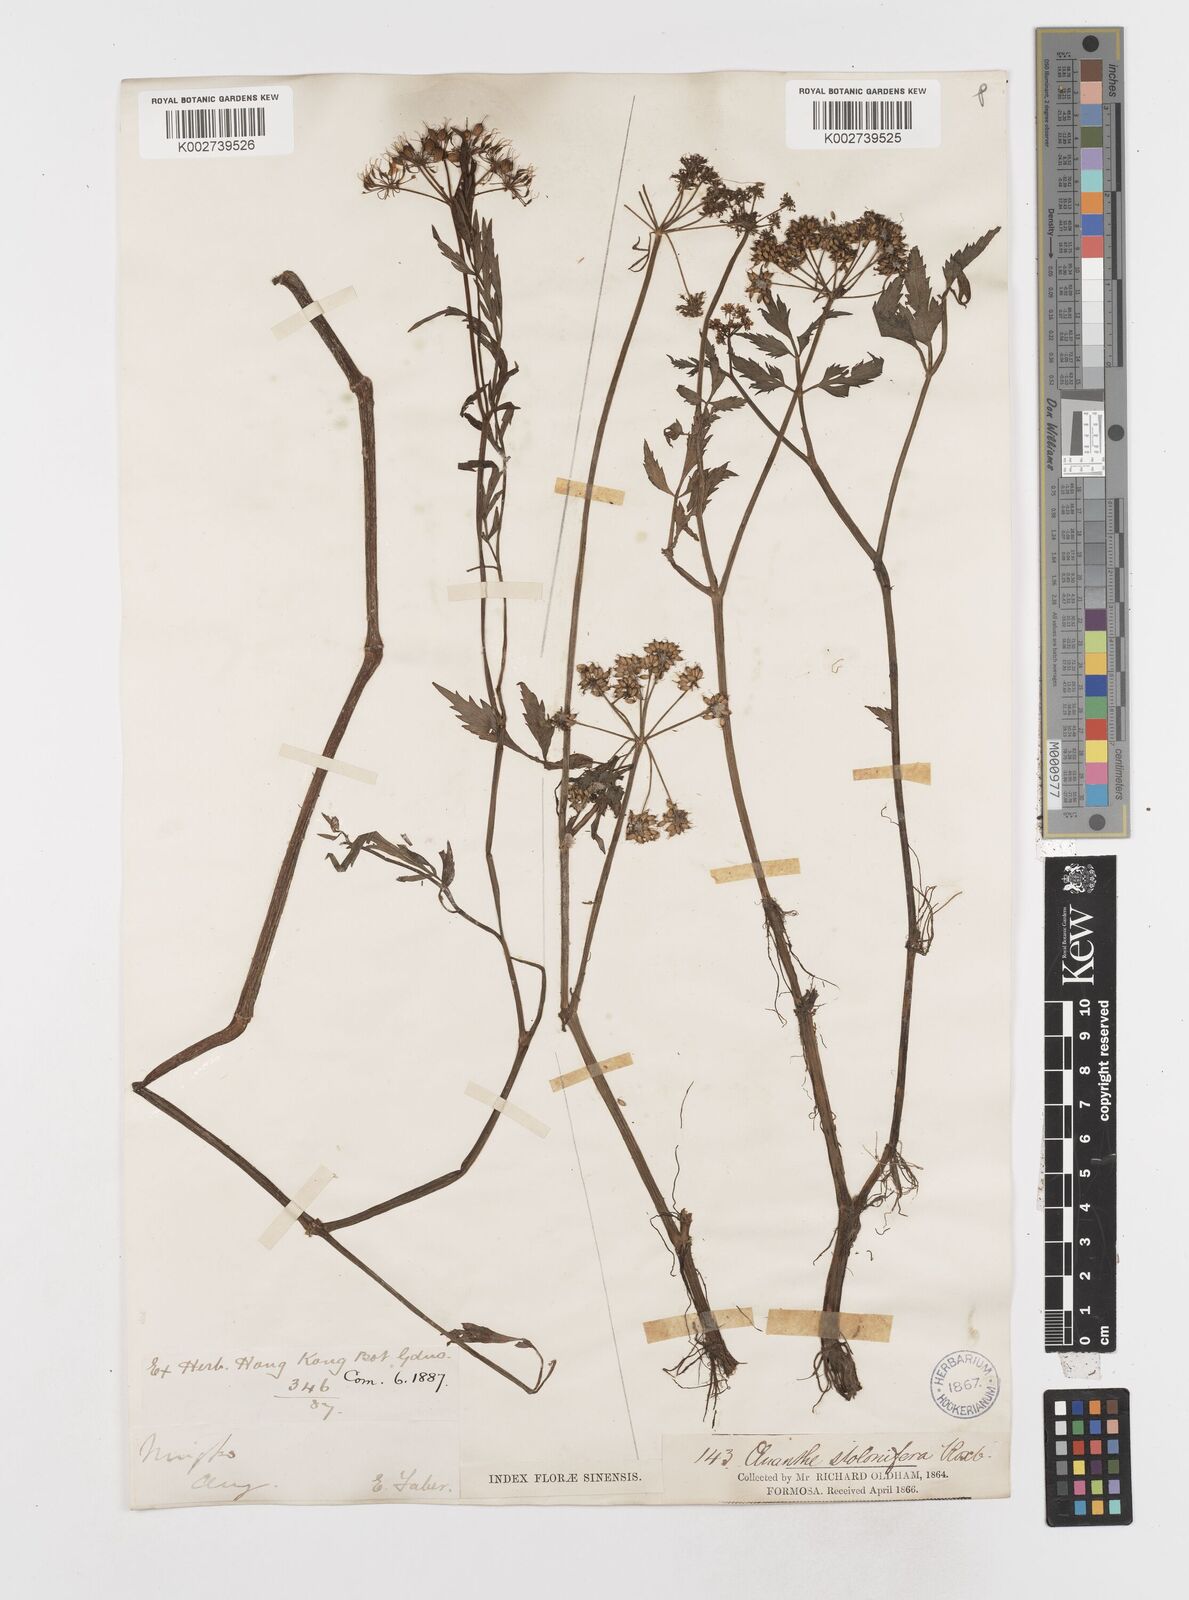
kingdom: Plantae
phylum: Tracheophyta
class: Magnoliopsida
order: Apiales
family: Apiaceae
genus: Oenanthe
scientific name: Oenanthe javanica
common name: Java water-dropwort
